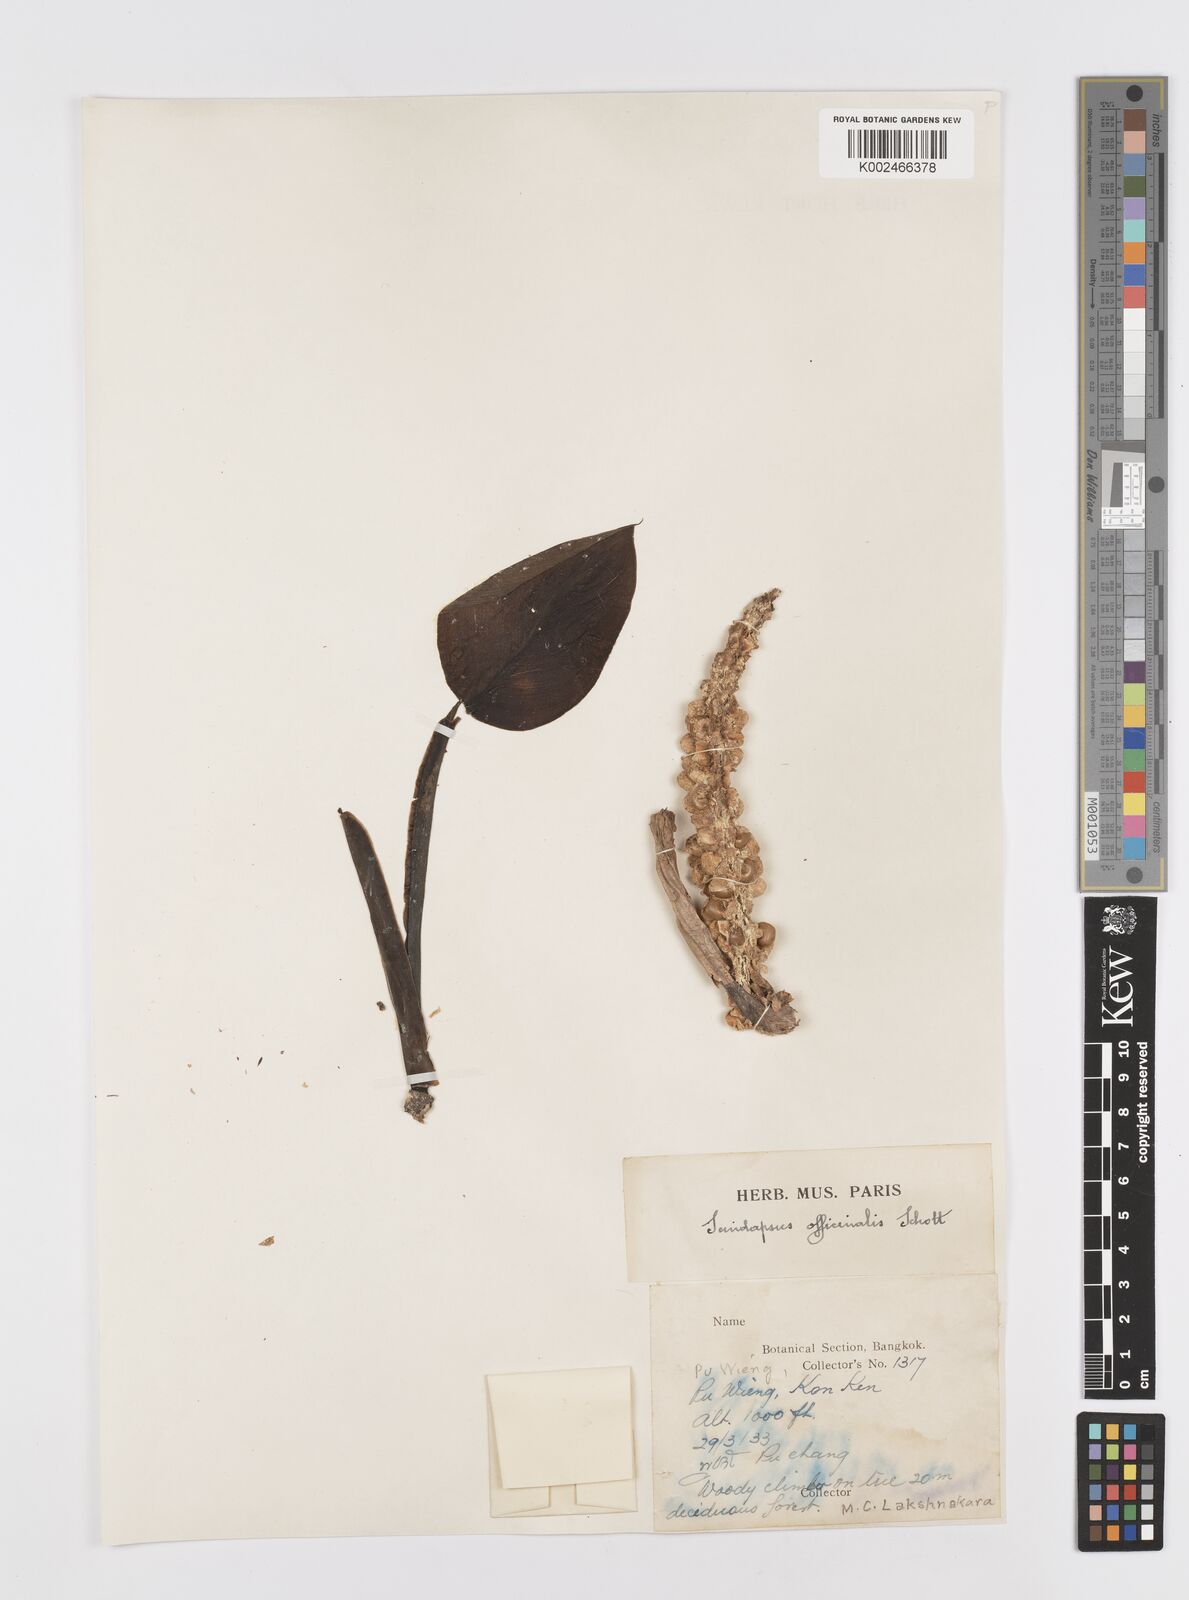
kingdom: Plantae
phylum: Tracheophyta
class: Liliopsida
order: Alismatales
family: Araceae
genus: Scindapsus
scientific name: Scindapsus officinalis
